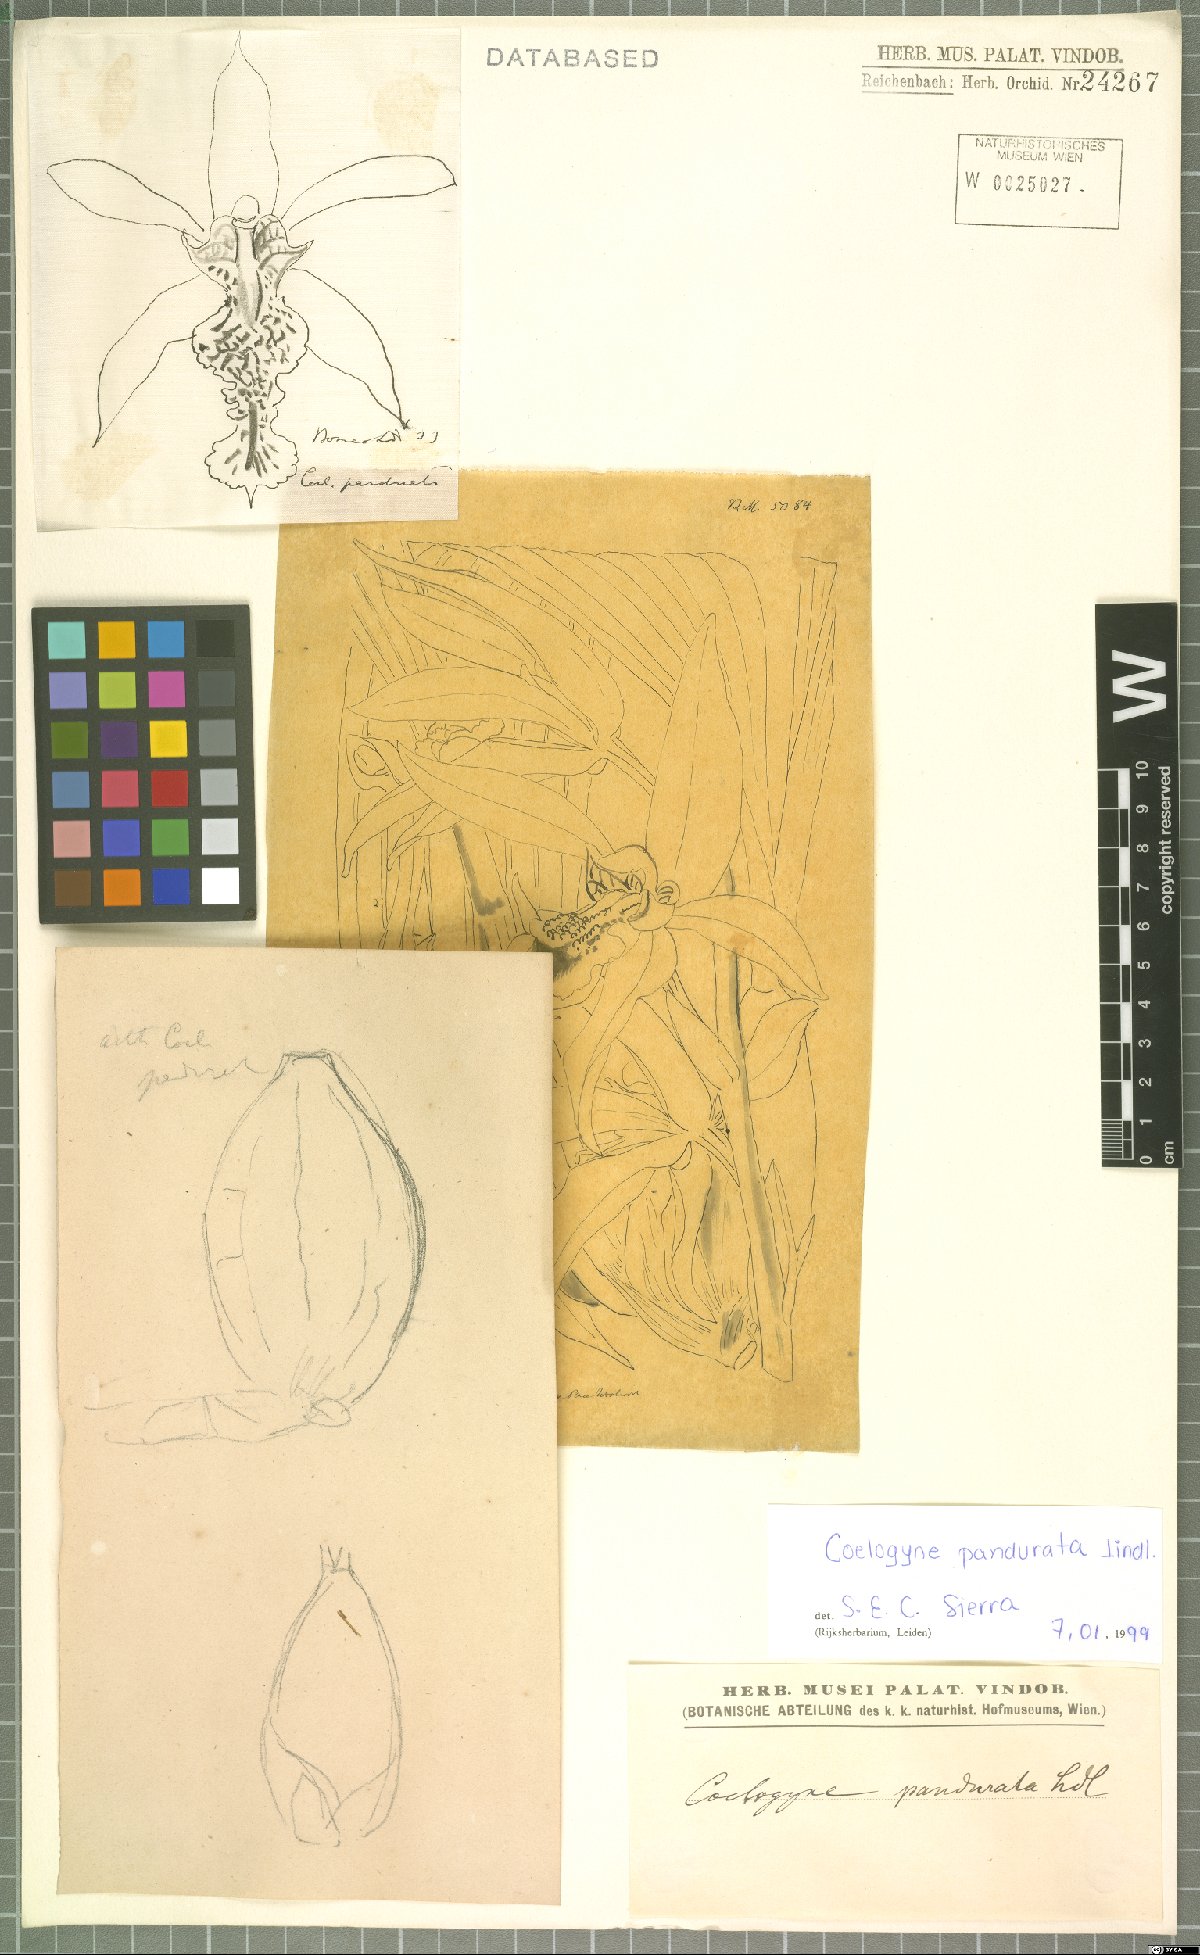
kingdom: Plantae
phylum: Tracheophyta
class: Liliopsida
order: Asparagales
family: Orchidaceae
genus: Coelogyne
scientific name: Coelogyne pandurata
